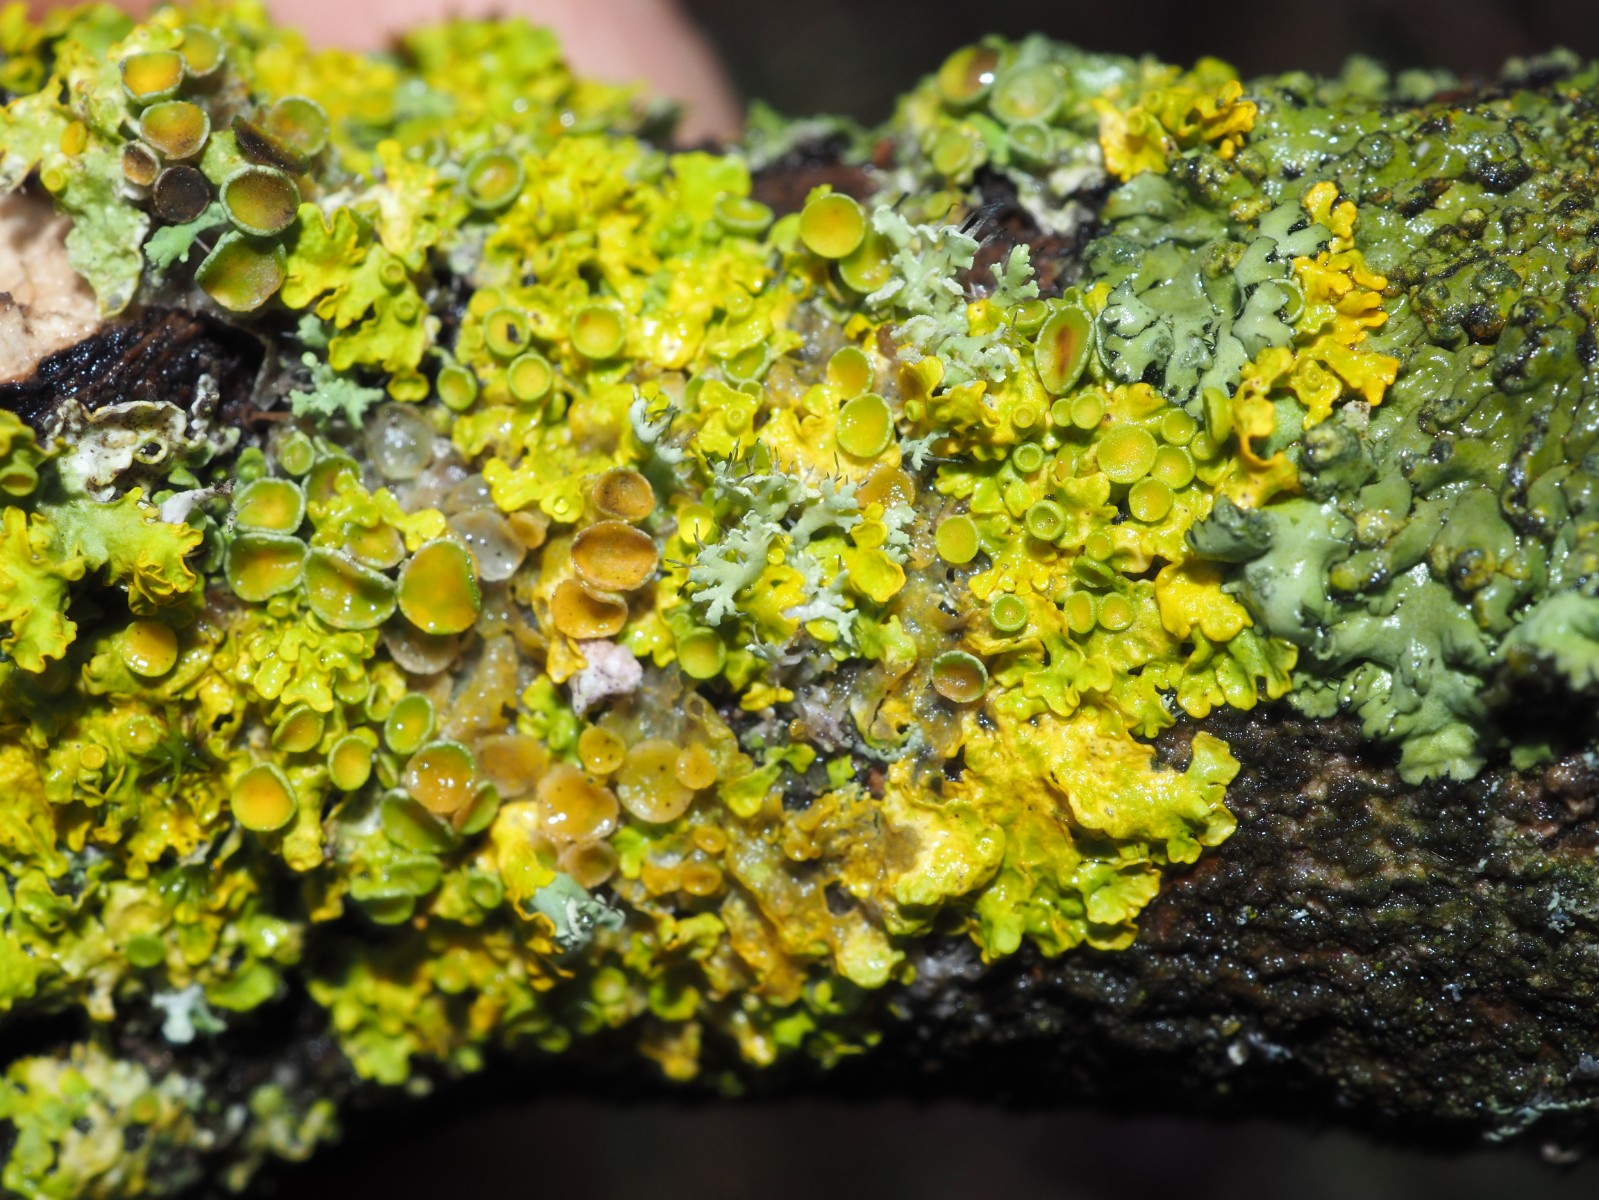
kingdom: Fungi
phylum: Ascomycota
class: Lecanoromycetes
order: Teloschistales
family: Teloschistaceae
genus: Xanthoria
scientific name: Xanthoria parietina
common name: almindelig væggelav
